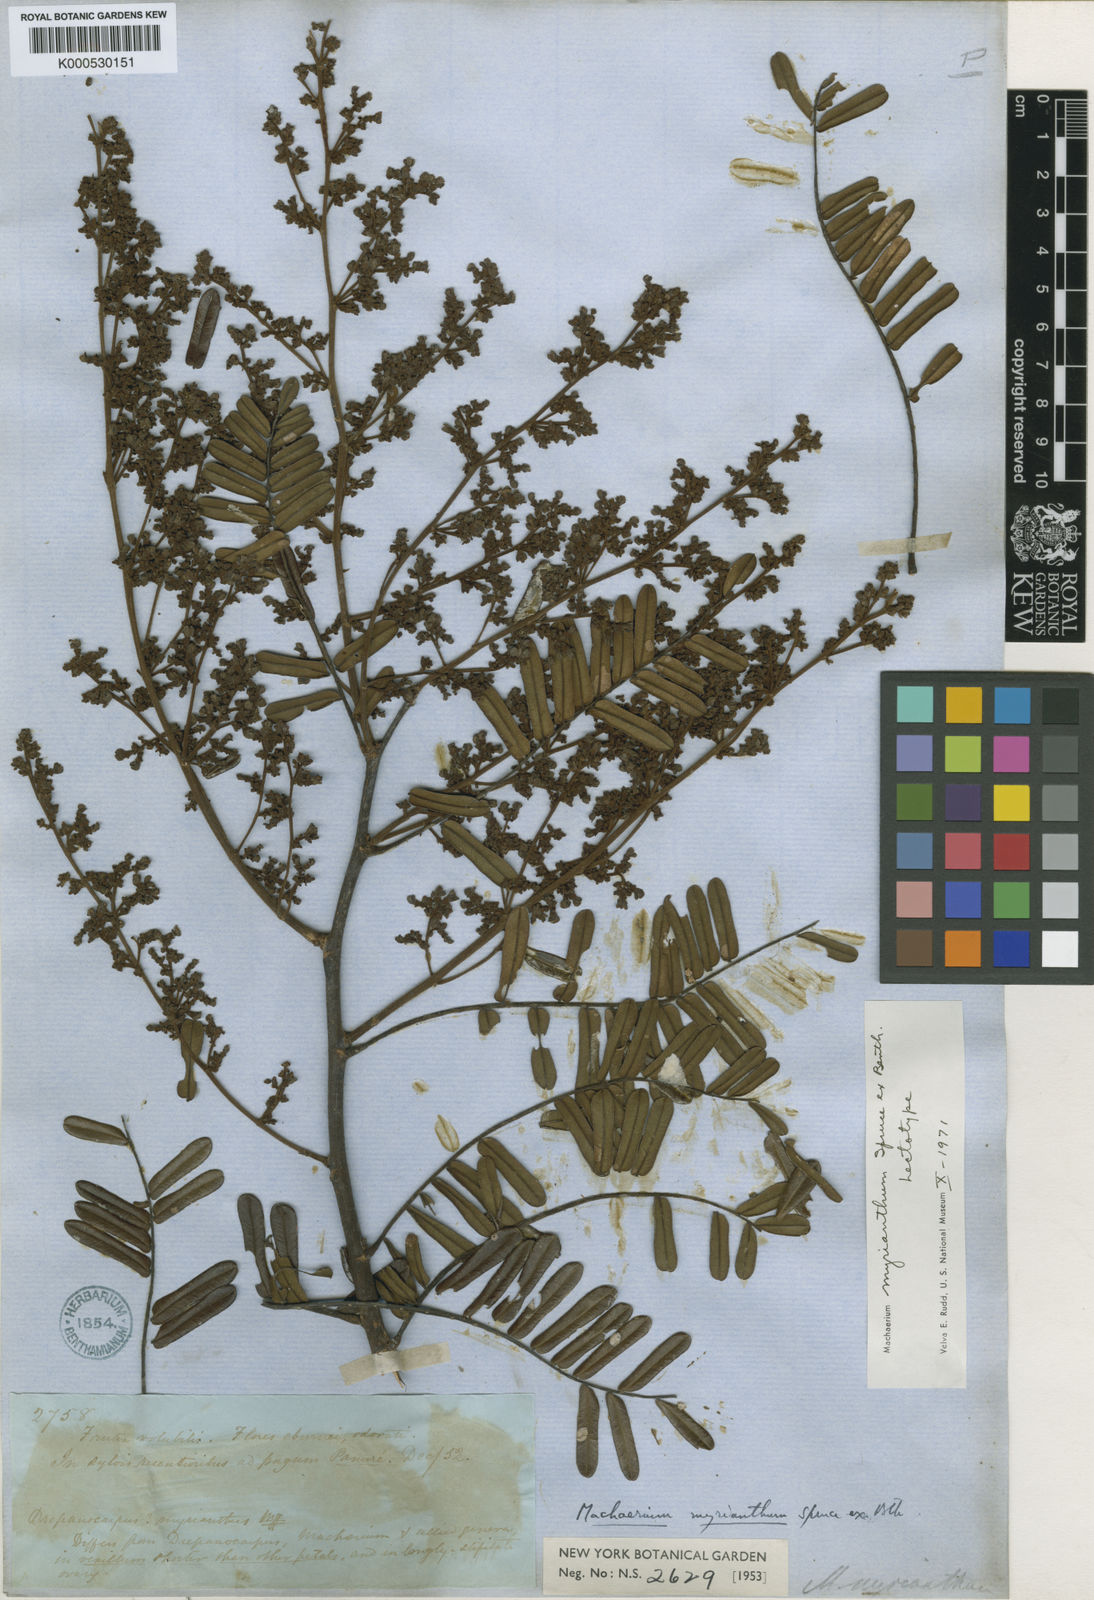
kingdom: Plantae
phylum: Tracheophyta
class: Magnoliopsida
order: Fabales
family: Fabaceae
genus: Machaerium
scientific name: Machaerium myrianthum
